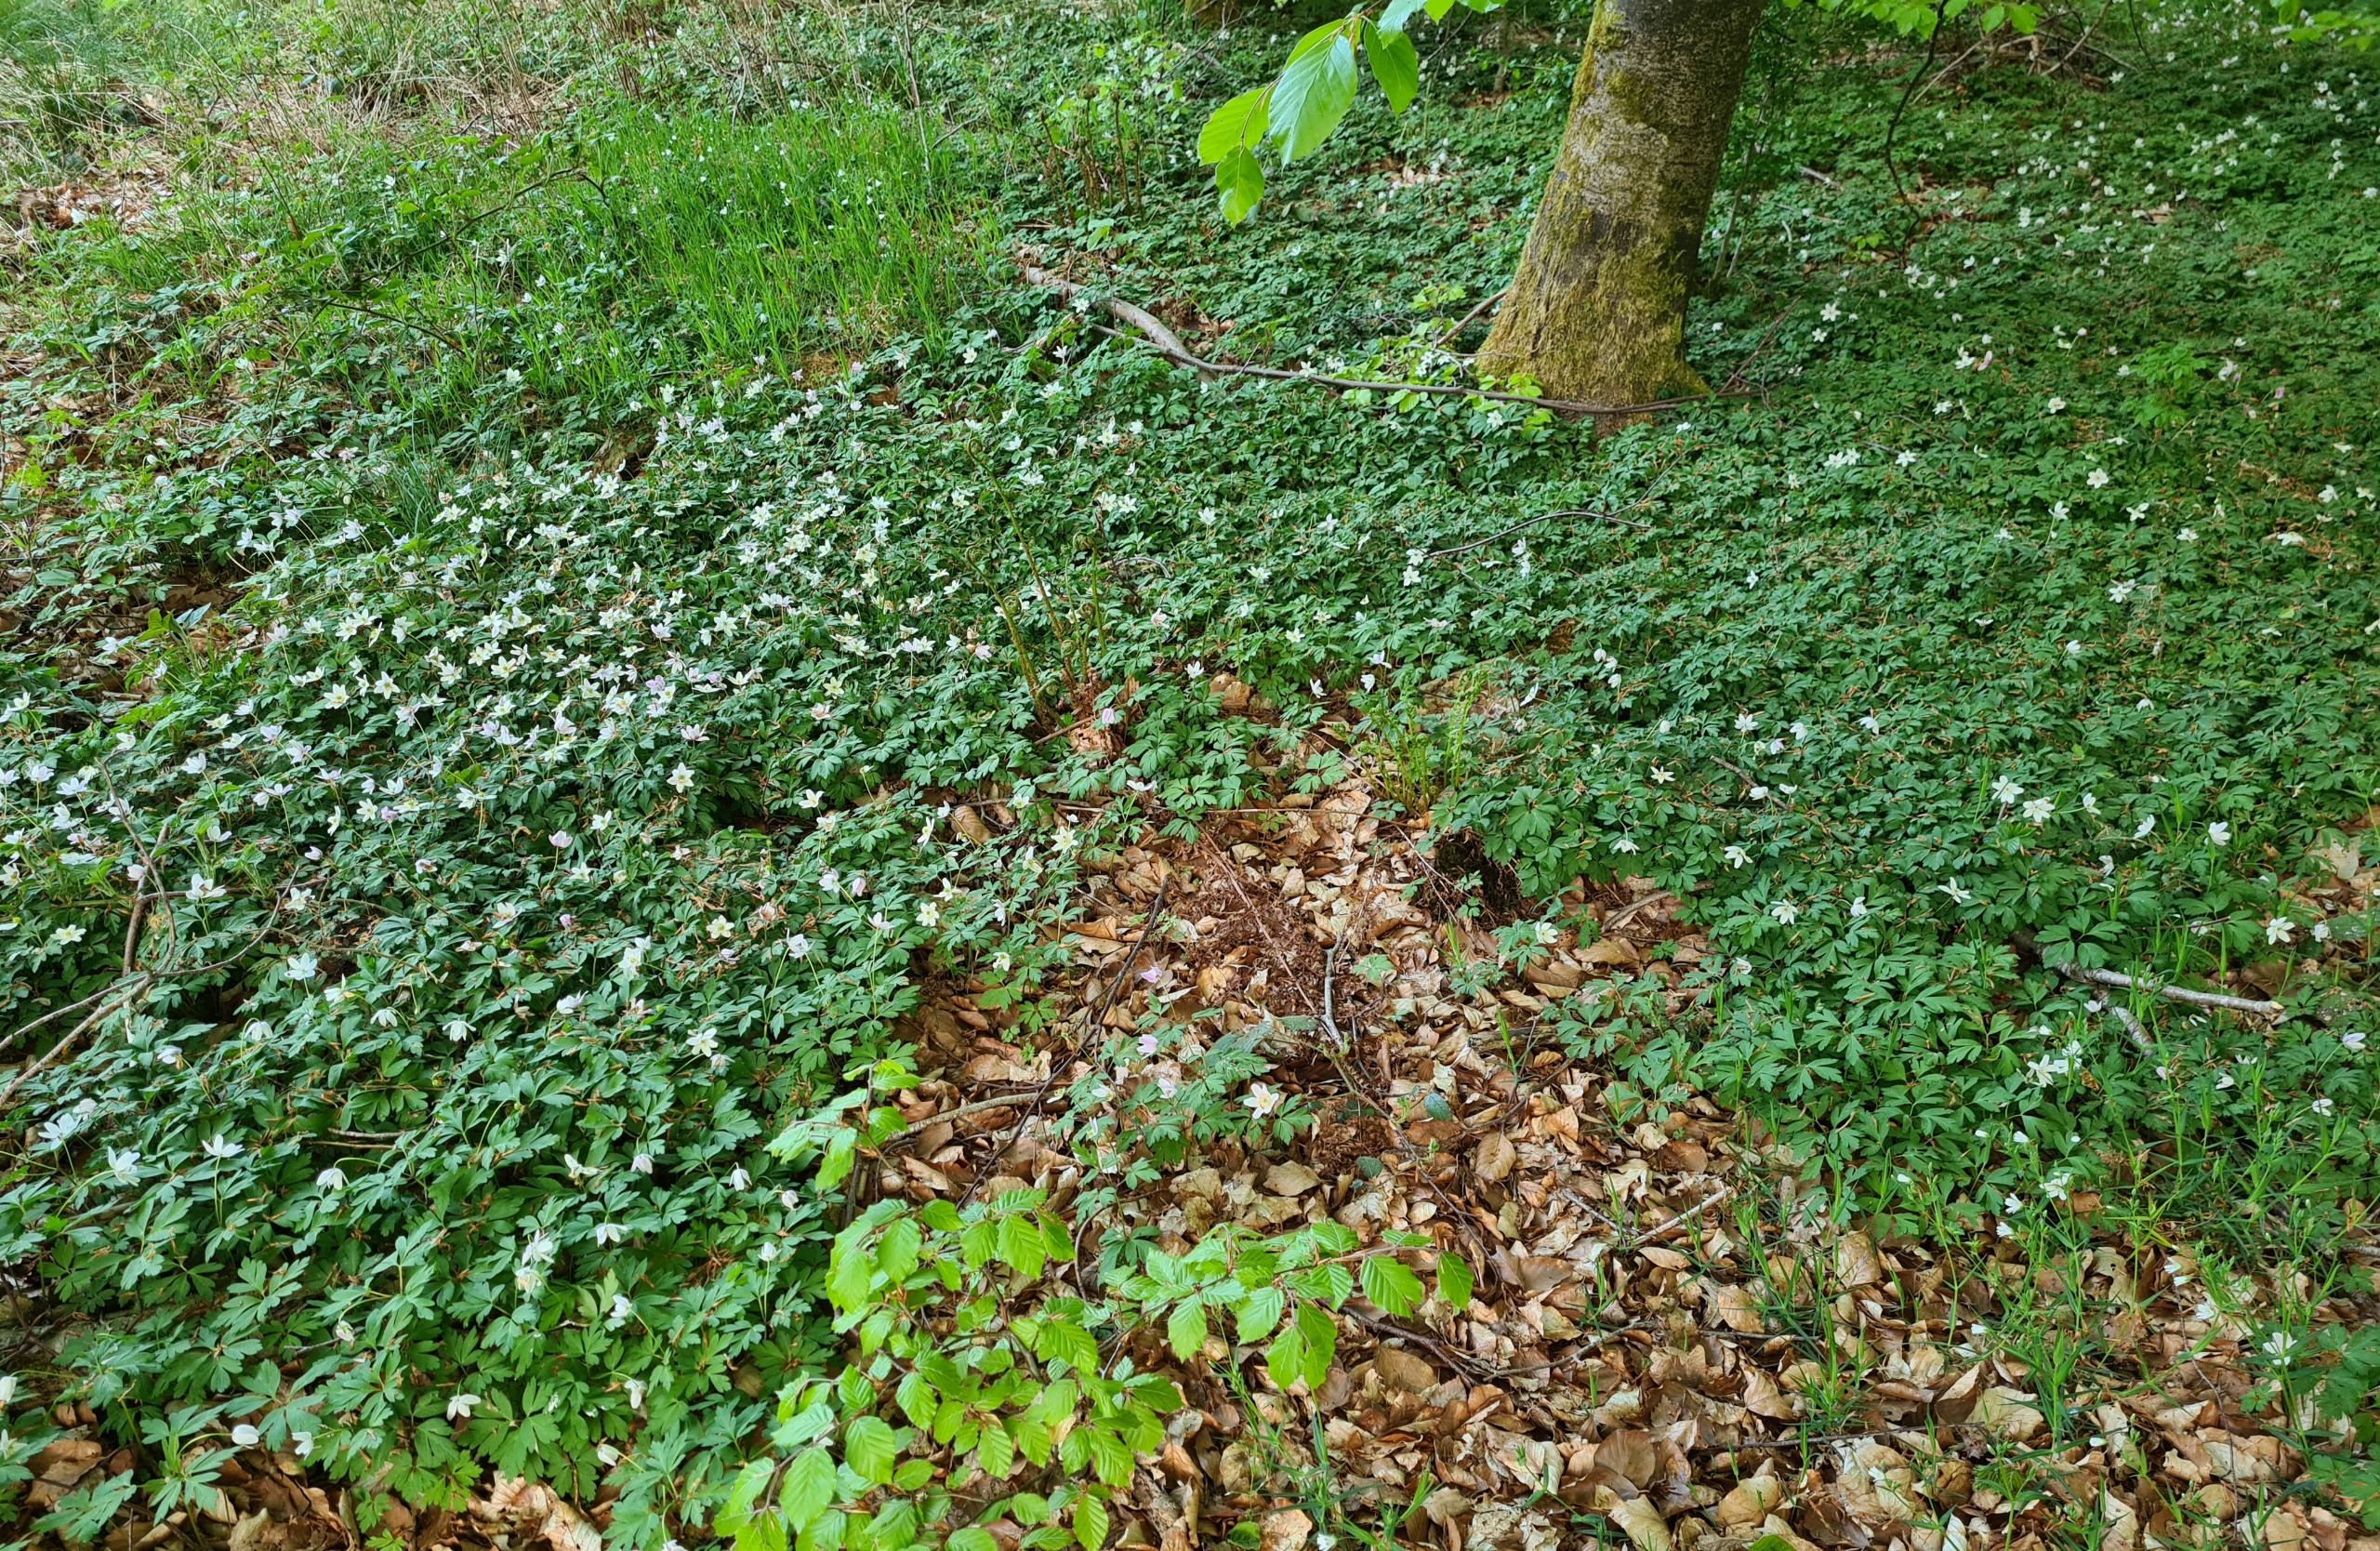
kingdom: Plantae
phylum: Tracheophyta
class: Magnoliopsida
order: Ranunculales
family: Ranunculaceae
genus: Anemone
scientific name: Anemone nemorosa
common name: Hvid anemone
